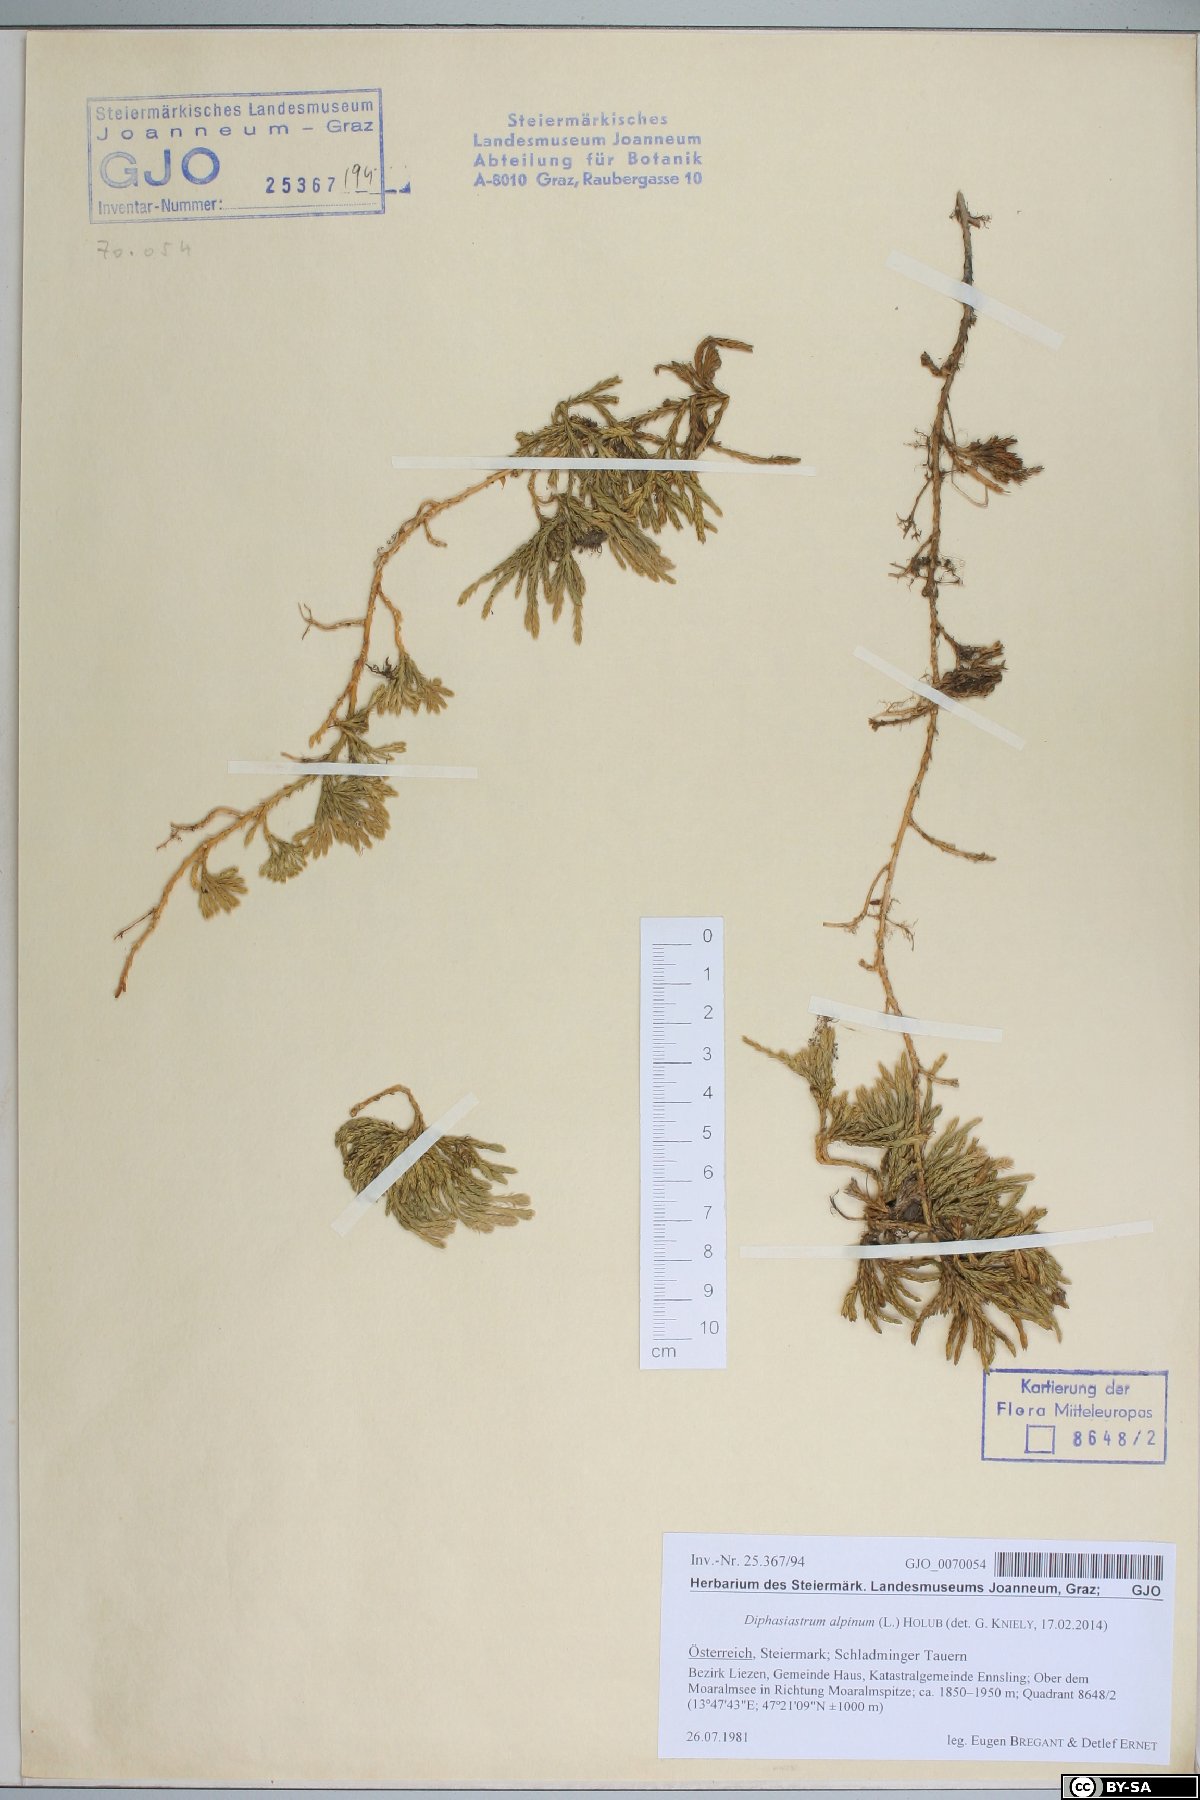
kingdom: Plantae
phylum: Tracheophyta
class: Lycopodiopsida
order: Lycopodiales
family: Lycopodiaceae
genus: Diphasiastrum
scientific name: Diphasiastrum alpinum
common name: Alpine clubmoss
